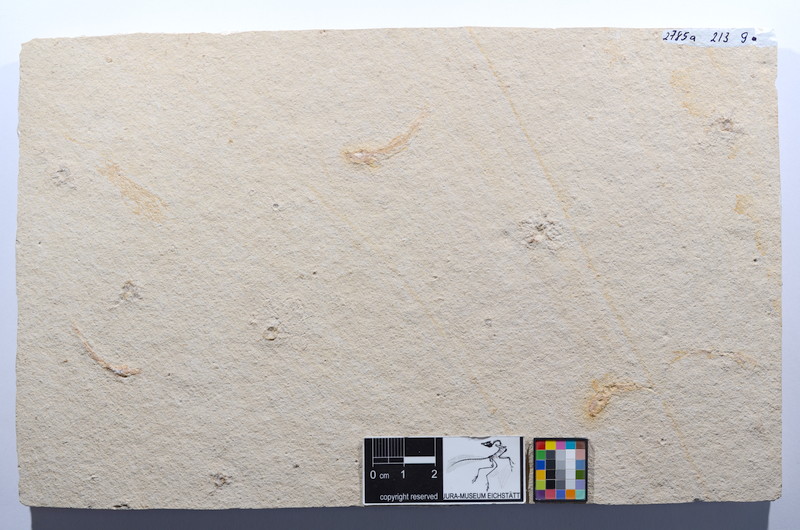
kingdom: Animalia
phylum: Chordata
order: Salmoniformes
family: Orthogonikleithridae
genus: Leptolepides
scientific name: Leptolepides sprattiformis
